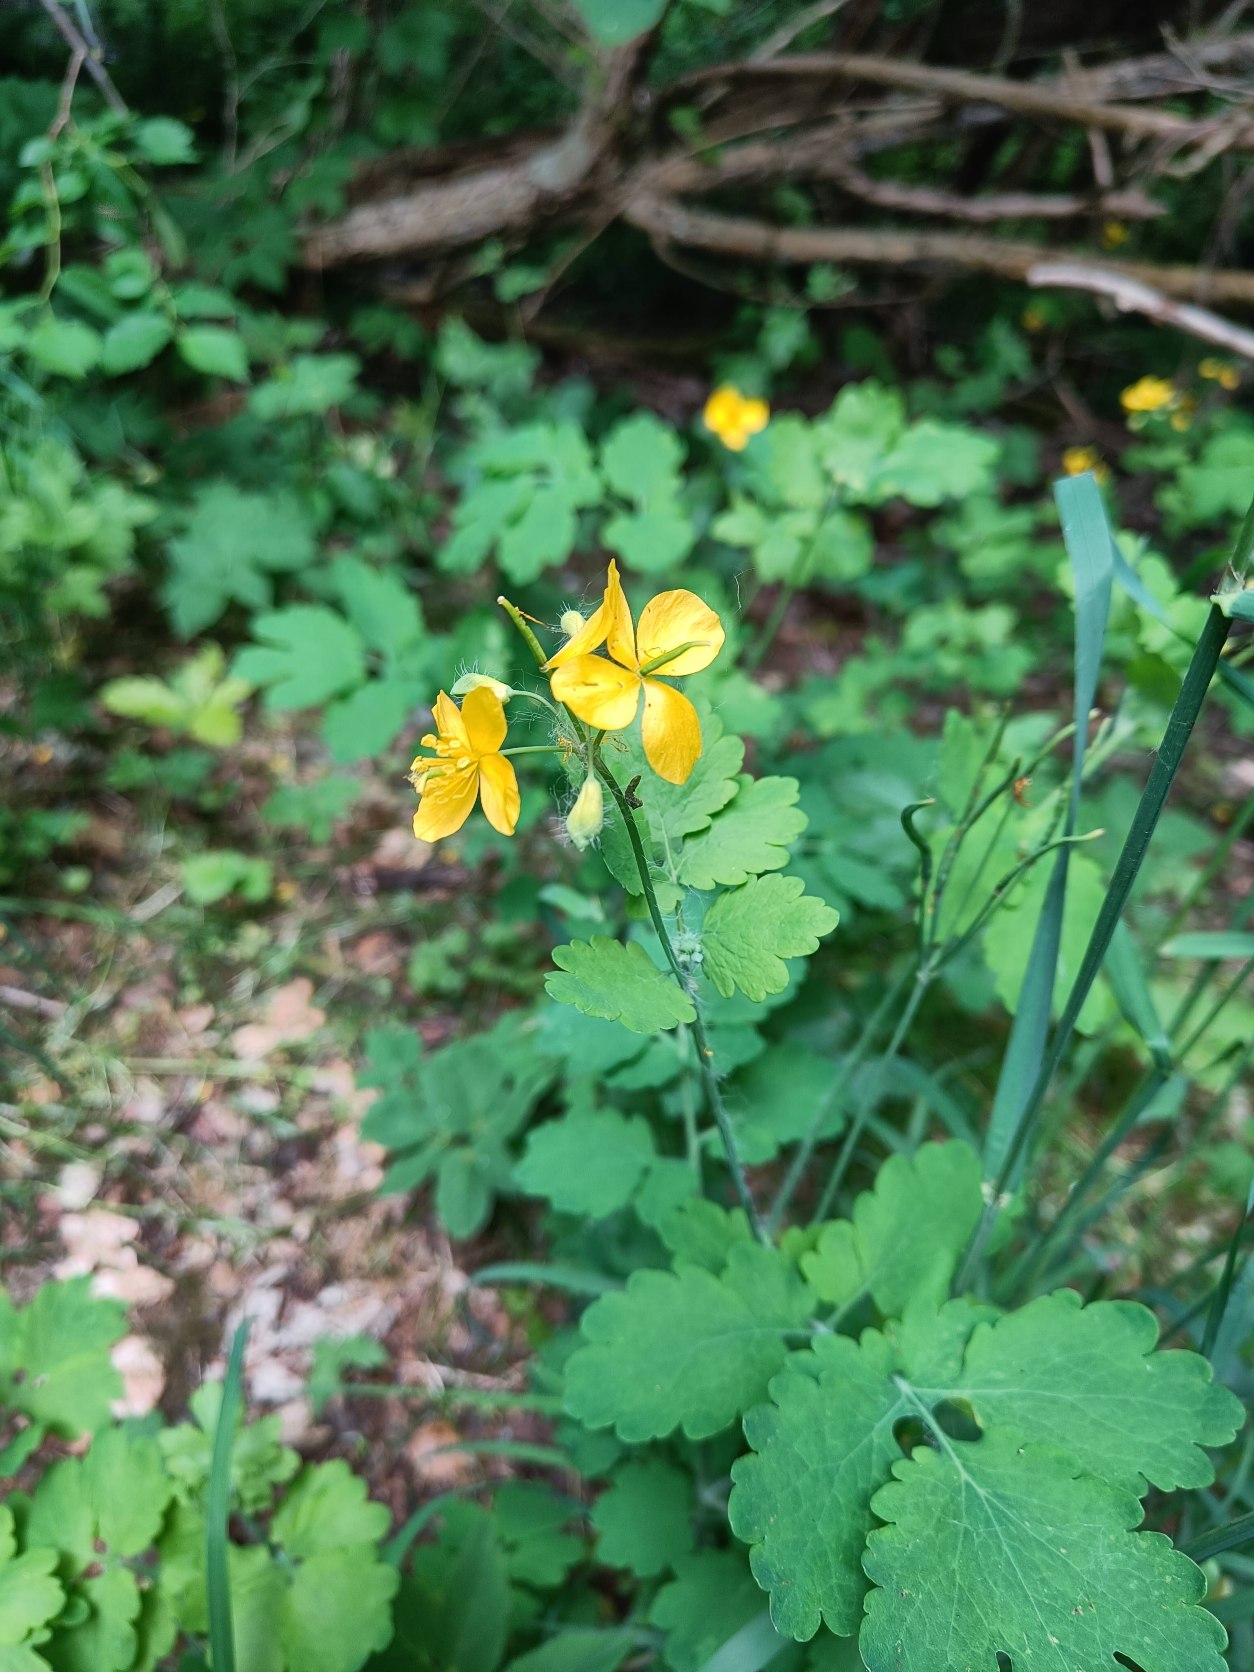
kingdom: Plantae
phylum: Tracheophyta
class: Magnoliopsida
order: Ranunculales
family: Papaveraceae
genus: Chelidonium
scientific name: Chelidonium majus
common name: Svaleurt
